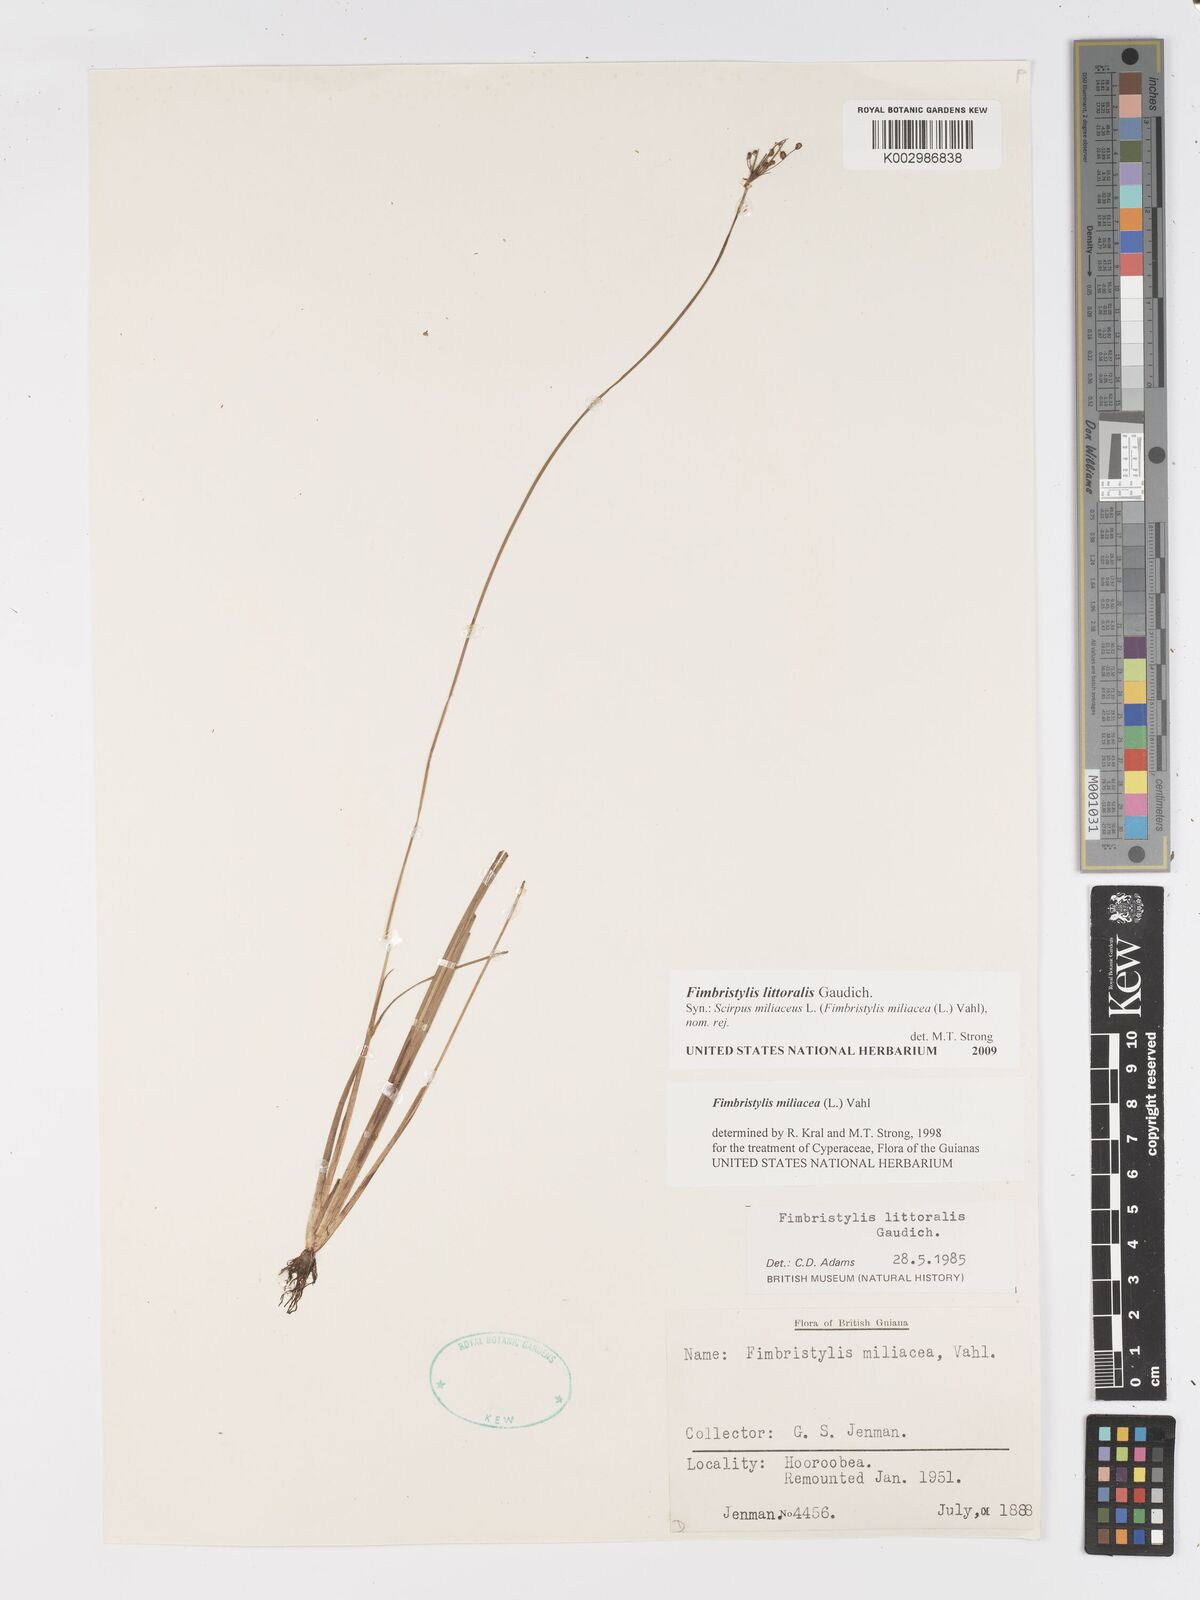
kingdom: Plantae
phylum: Tracheophyta
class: Liliopsida
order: Poales
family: Cyperaceae
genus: Fimbristylis
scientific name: Fimbristylis littoralis
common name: Fimbry
